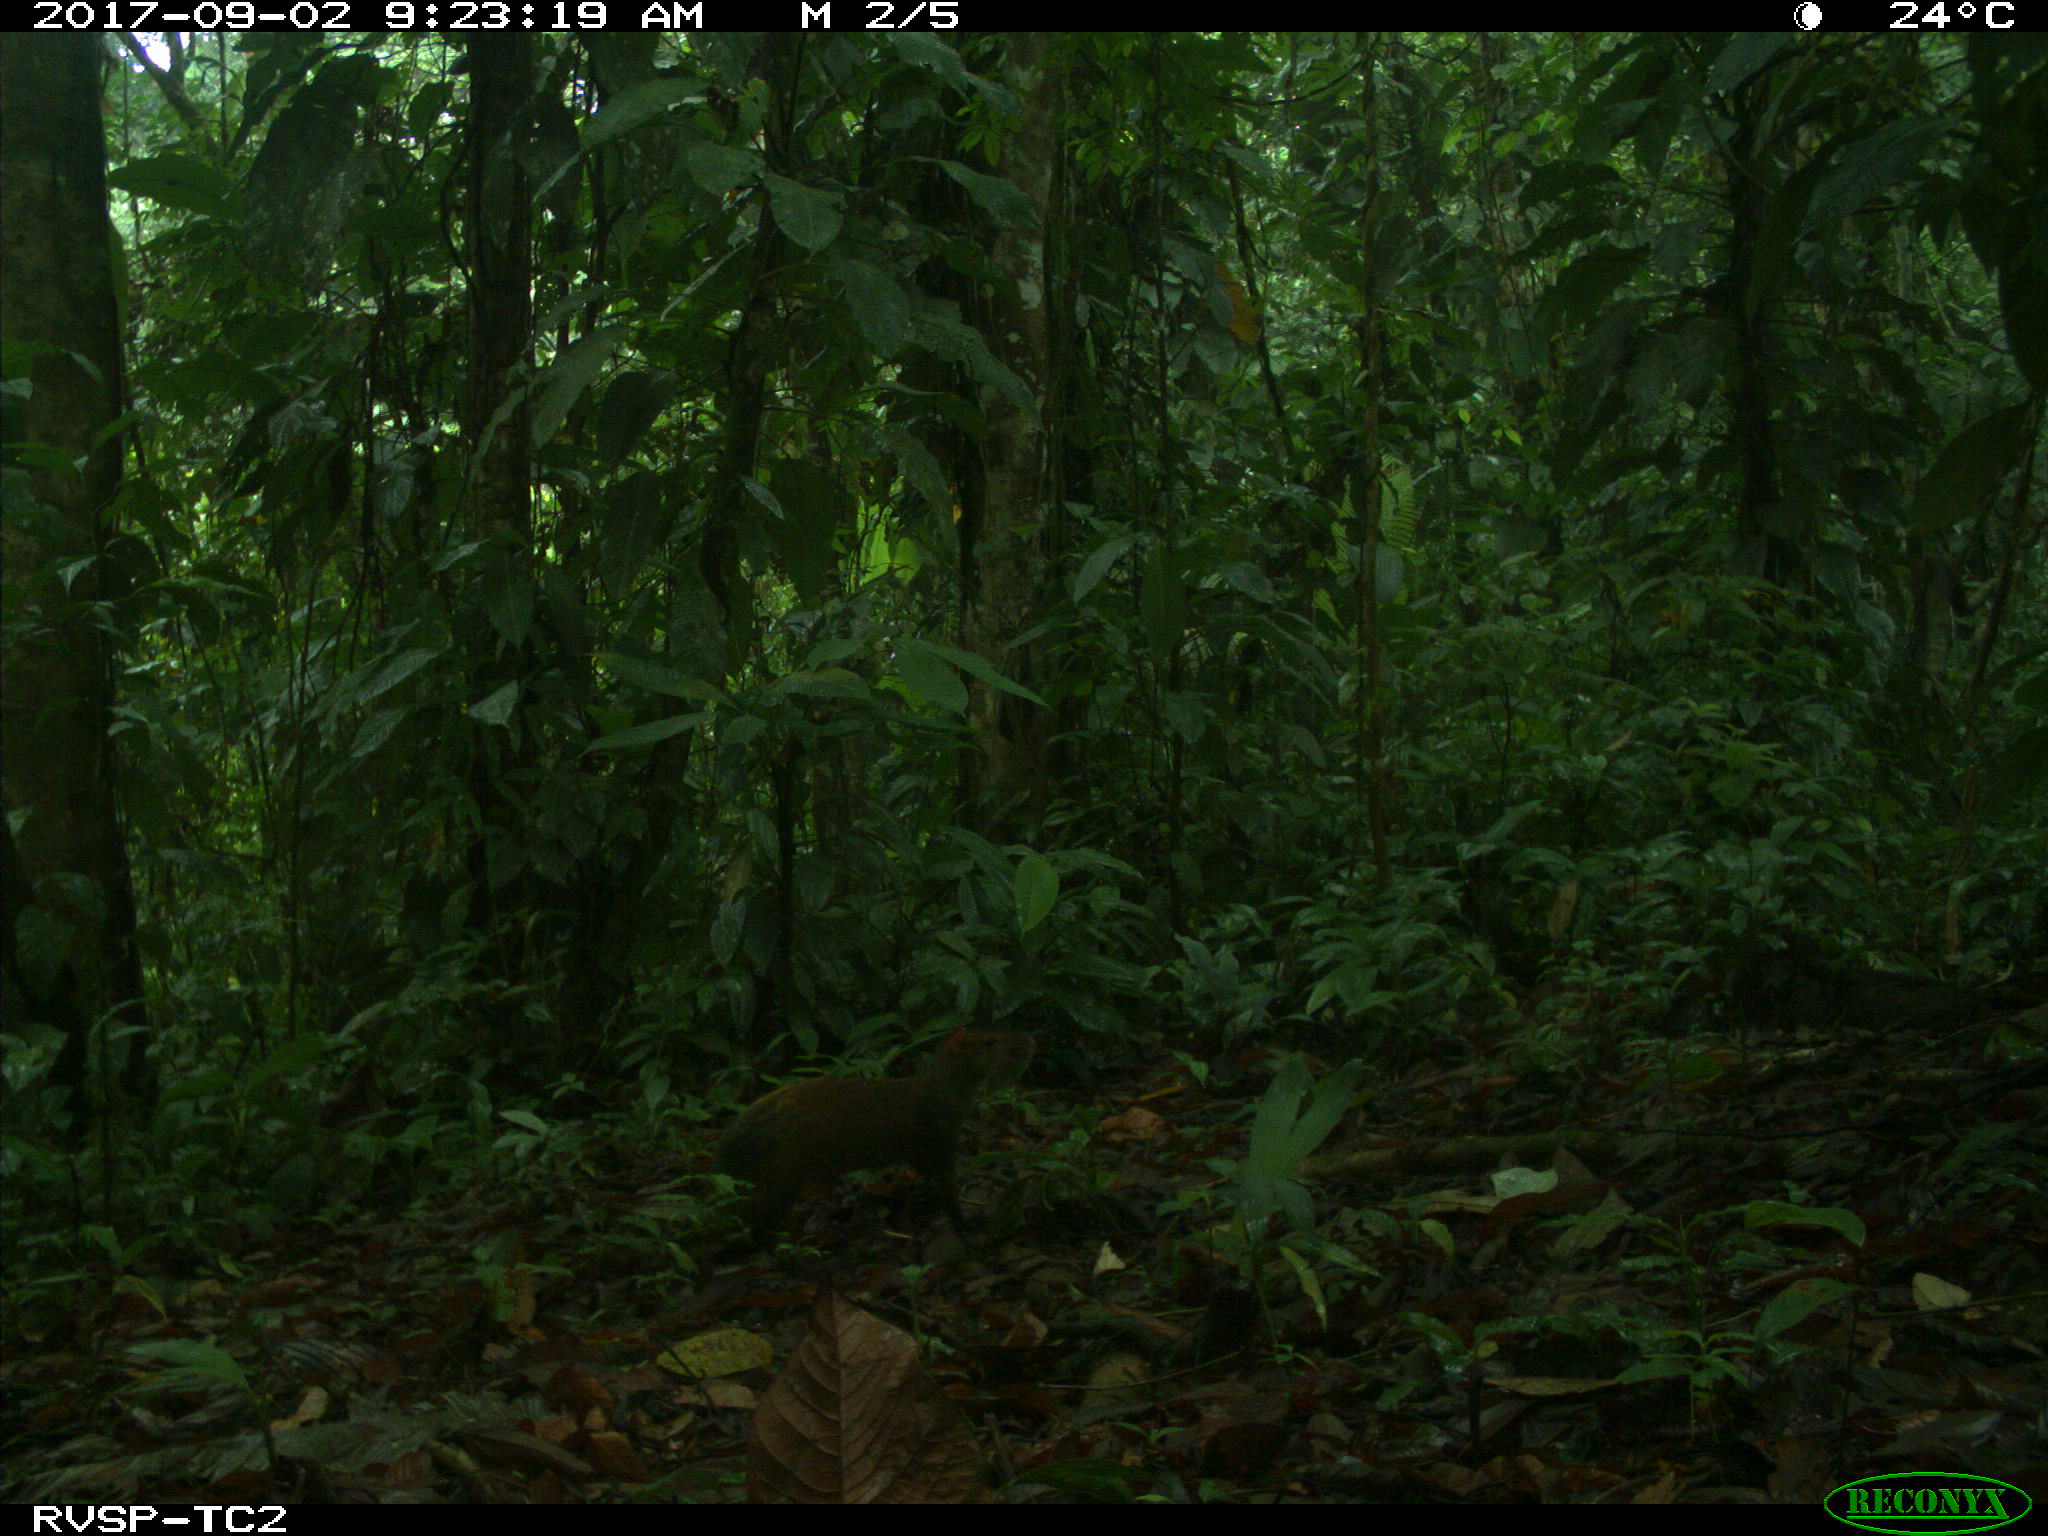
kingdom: Animalia
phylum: Chordata
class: Mammalia
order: Rodentia
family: Dasyproctidae
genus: Dasyprocta
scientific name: Dasyprocta punctata
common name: Central american agouti
